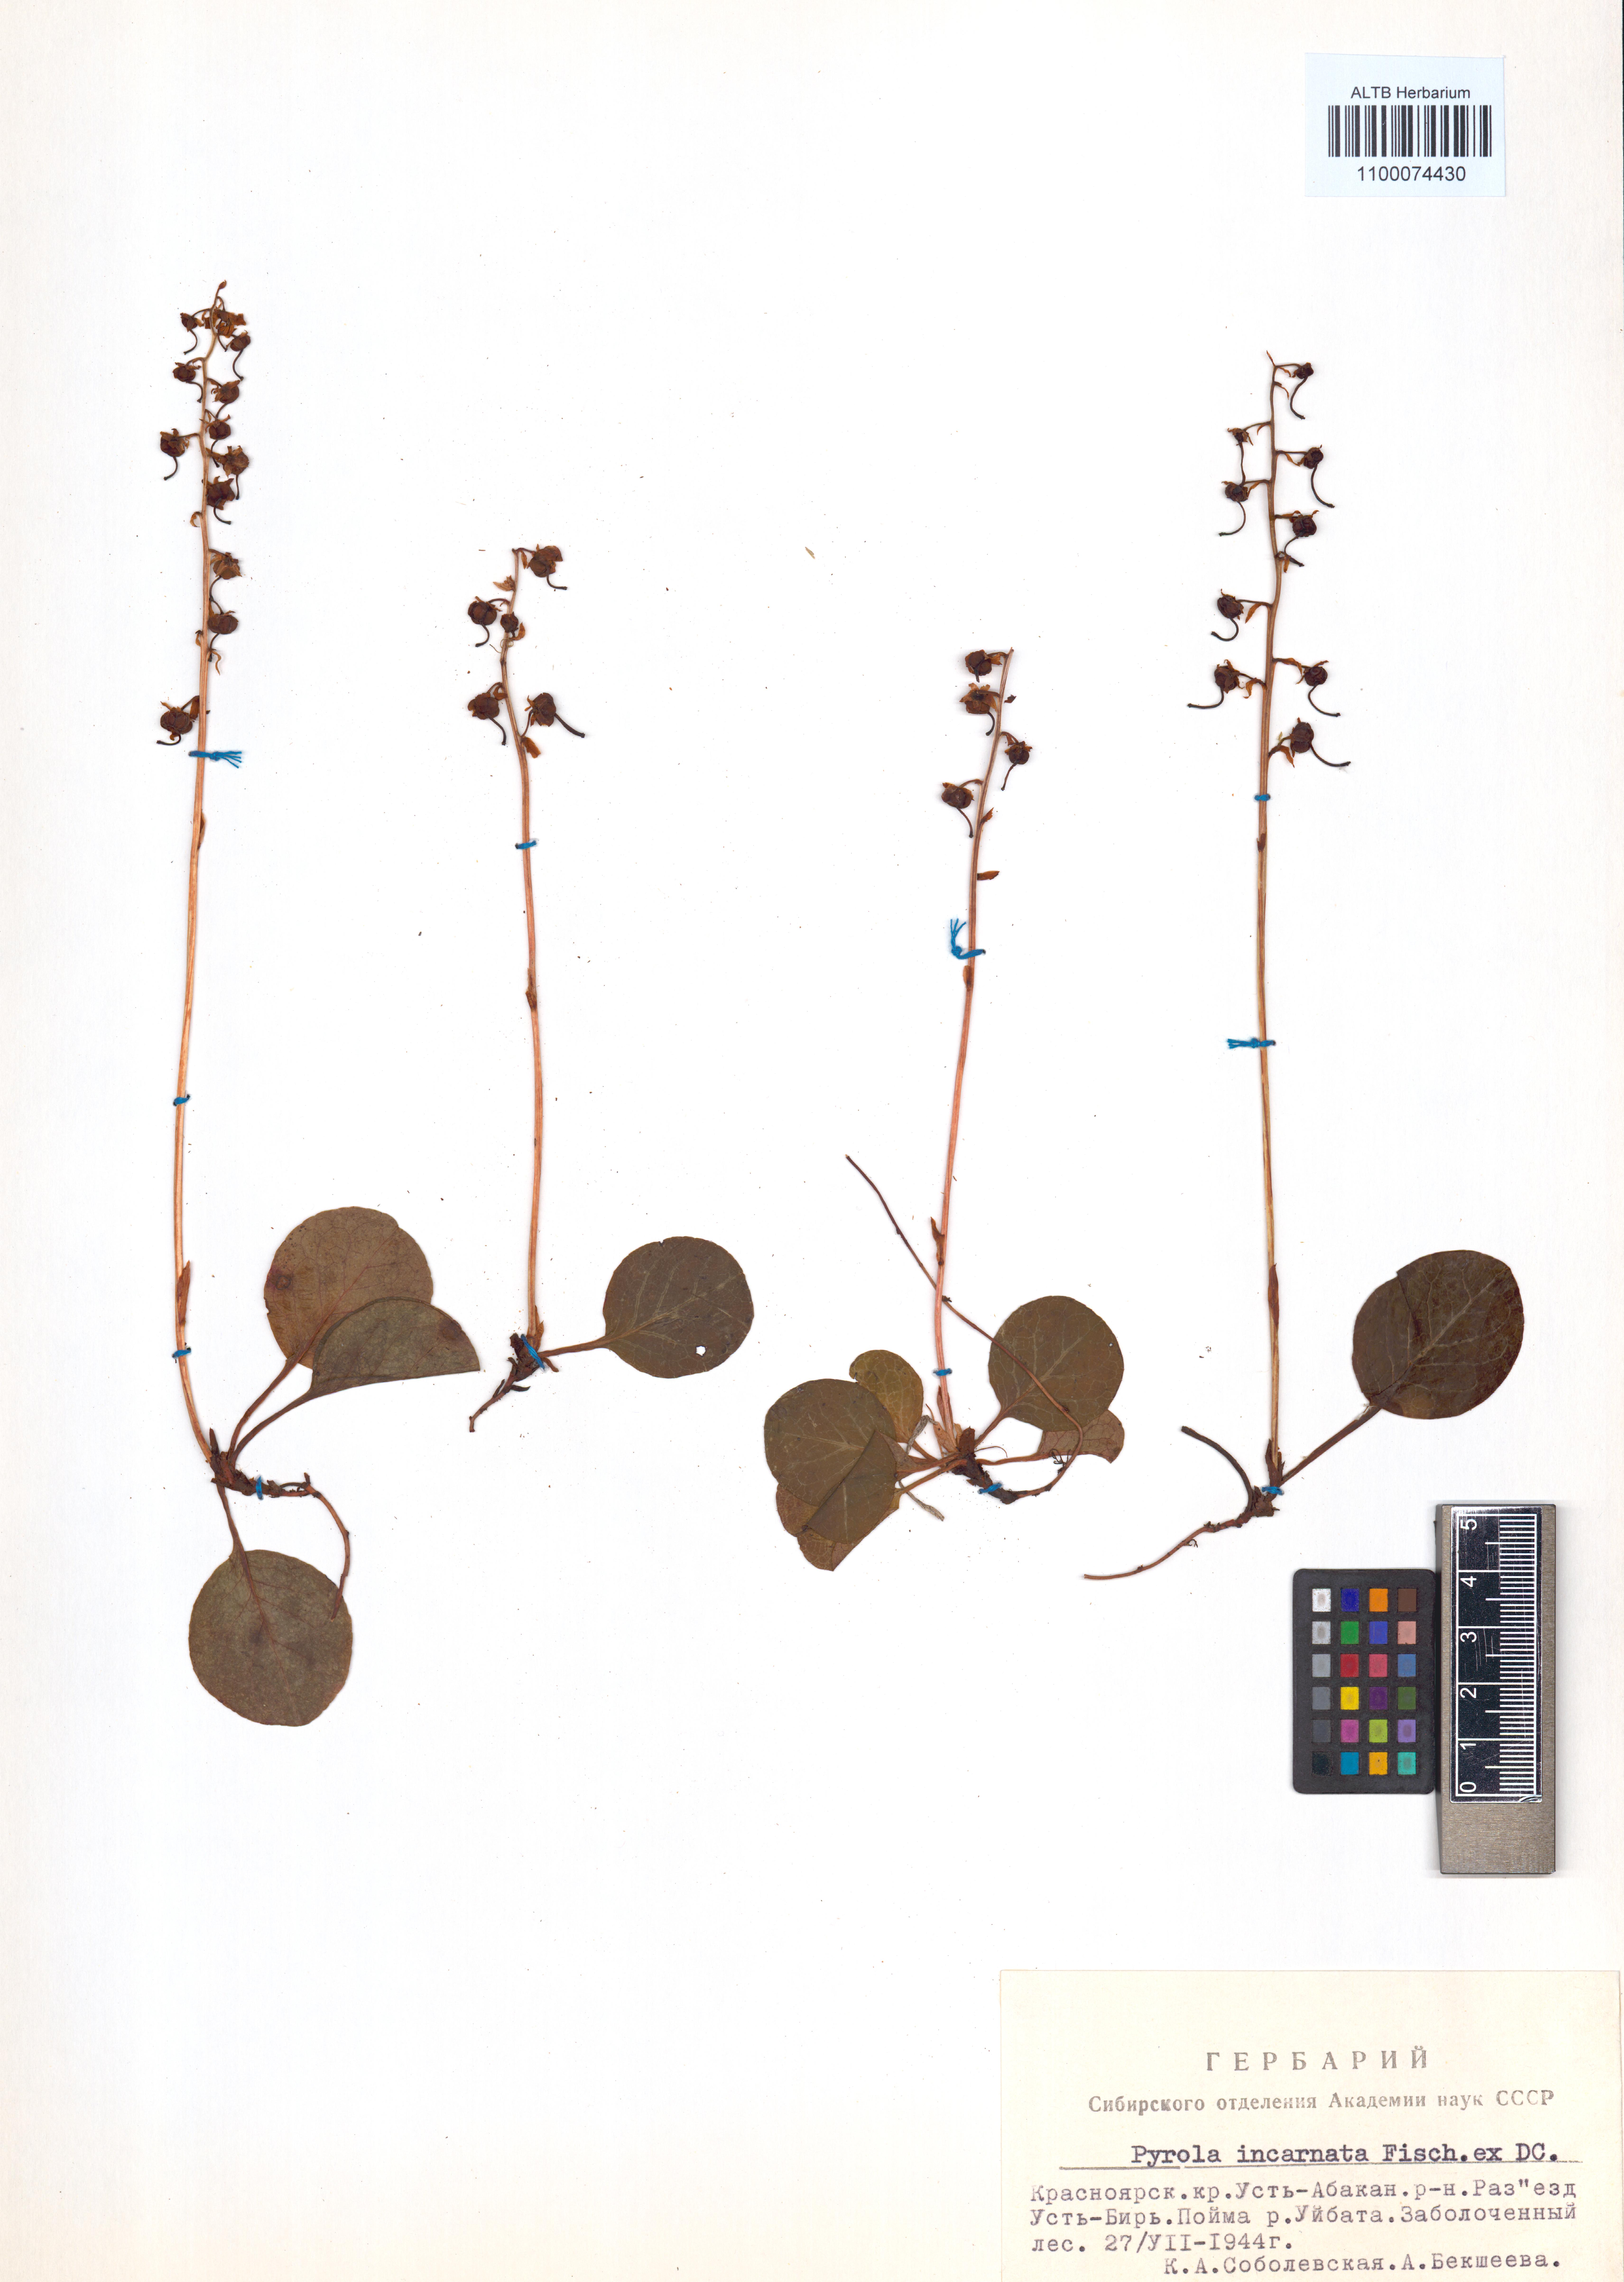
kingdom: Plantae
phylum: Tracheophyta
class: Magnoliopsida
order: Ericales
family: Ericaceae
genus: Pyrola
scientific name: Pyrola asarifolia
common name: Bog wintergreen
